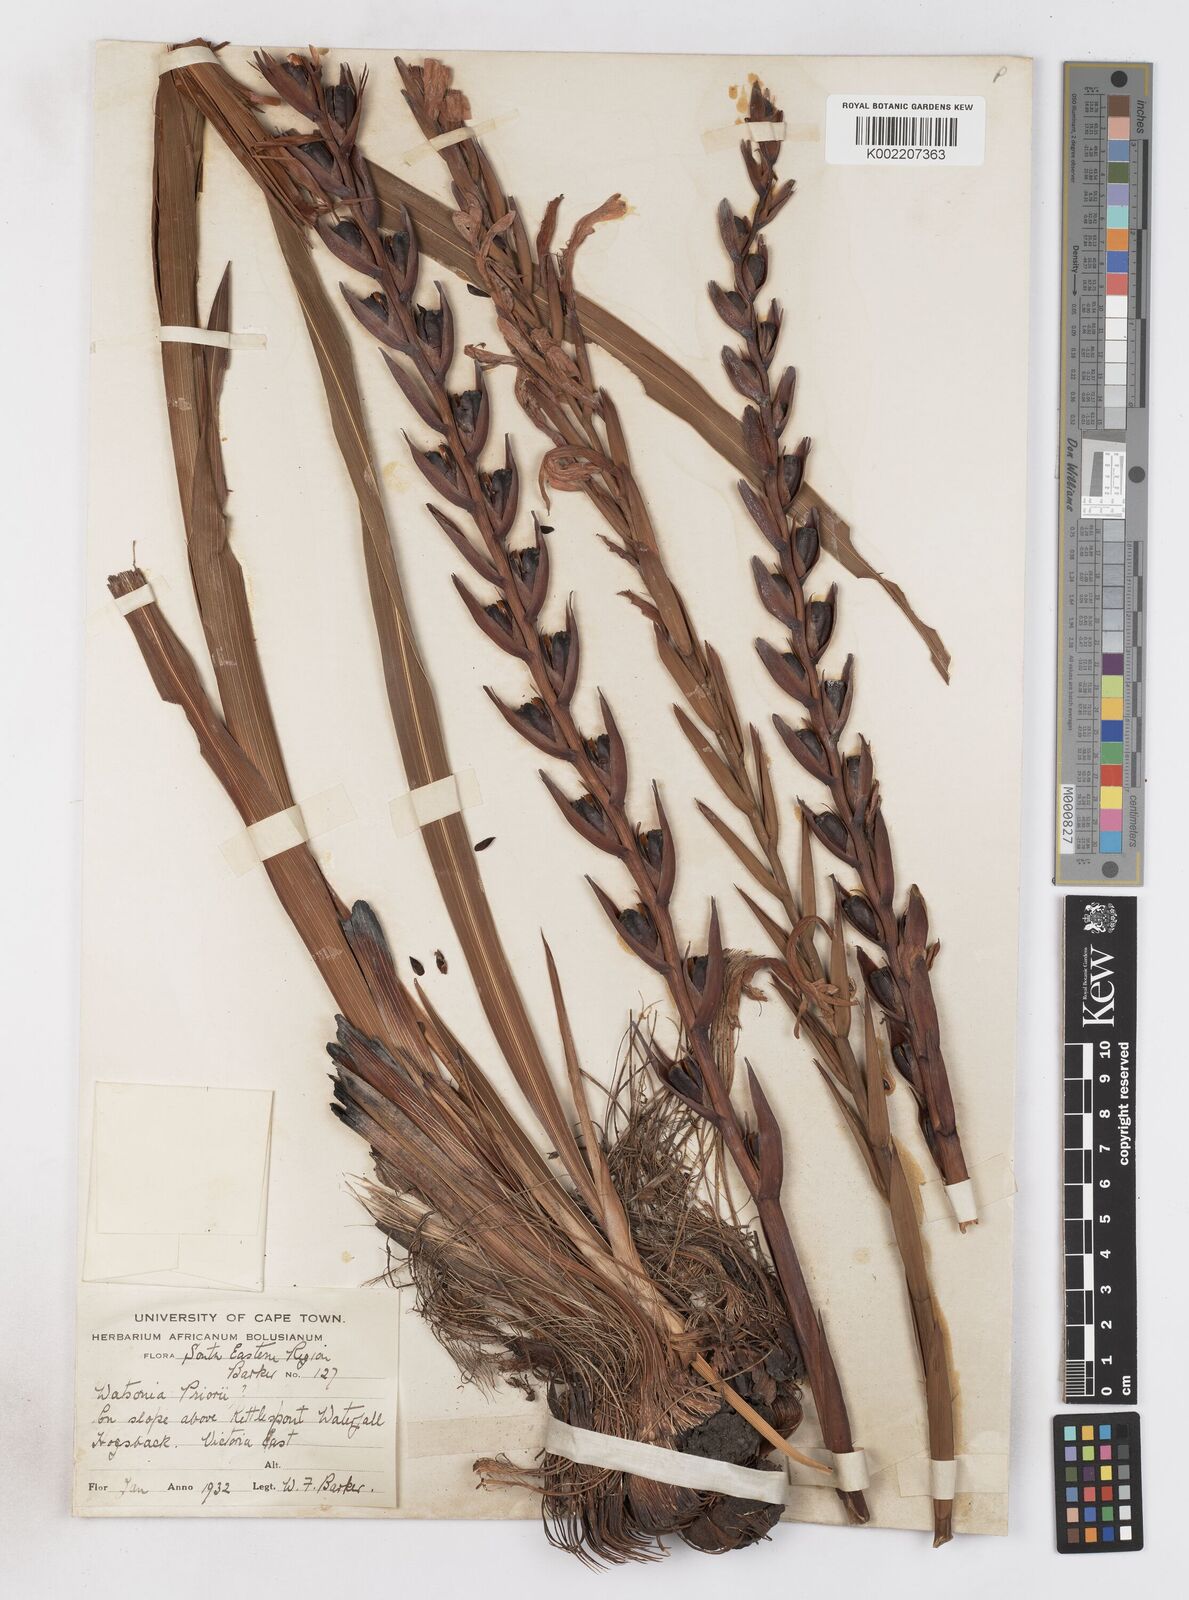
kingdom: Plantae
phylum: Tracheophyta
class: Liliopsida
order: Asparagales
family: Iridaceae
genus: Watsonia
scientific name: Watsonia pillansii
